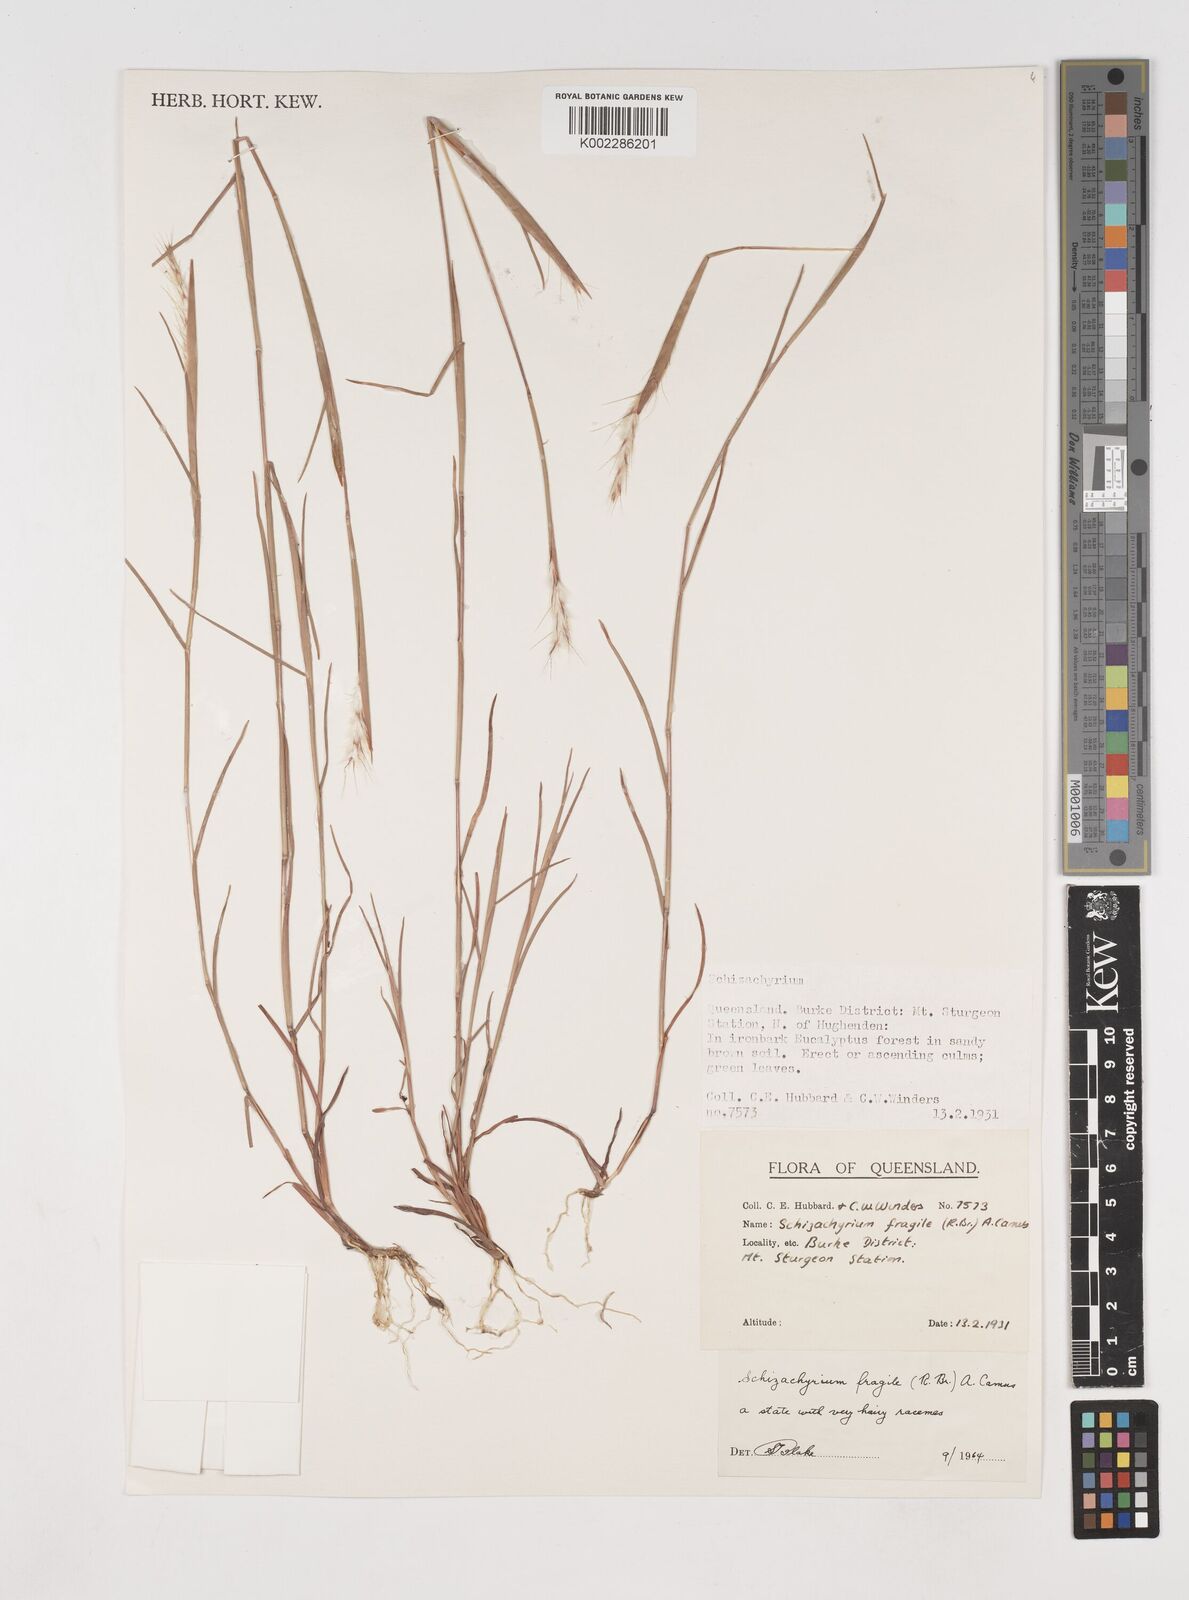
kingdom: Plantae
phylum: Tracheophyta
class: Liliopsida
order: Poales
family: Poaceae
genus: Schizachyrium
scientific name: Schizachyrium fragile
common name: Red spathe grass
